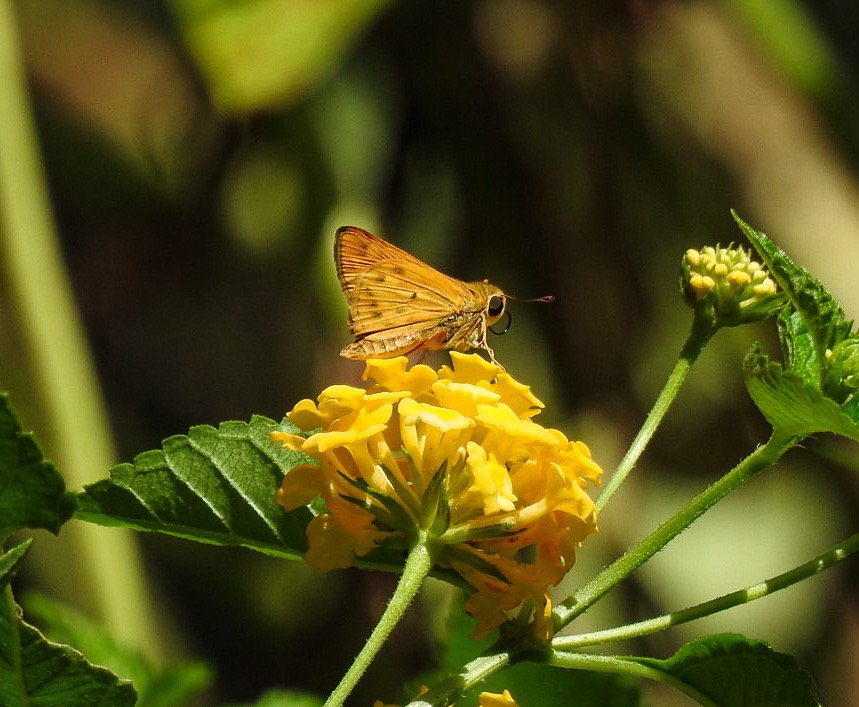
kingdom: Animalia
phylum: Arthropoda
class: Insecta
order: Lepidoptera
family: Hesperiidae
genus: Hylephila
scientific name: Hylephila phyleus
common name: Fiery Skipper
